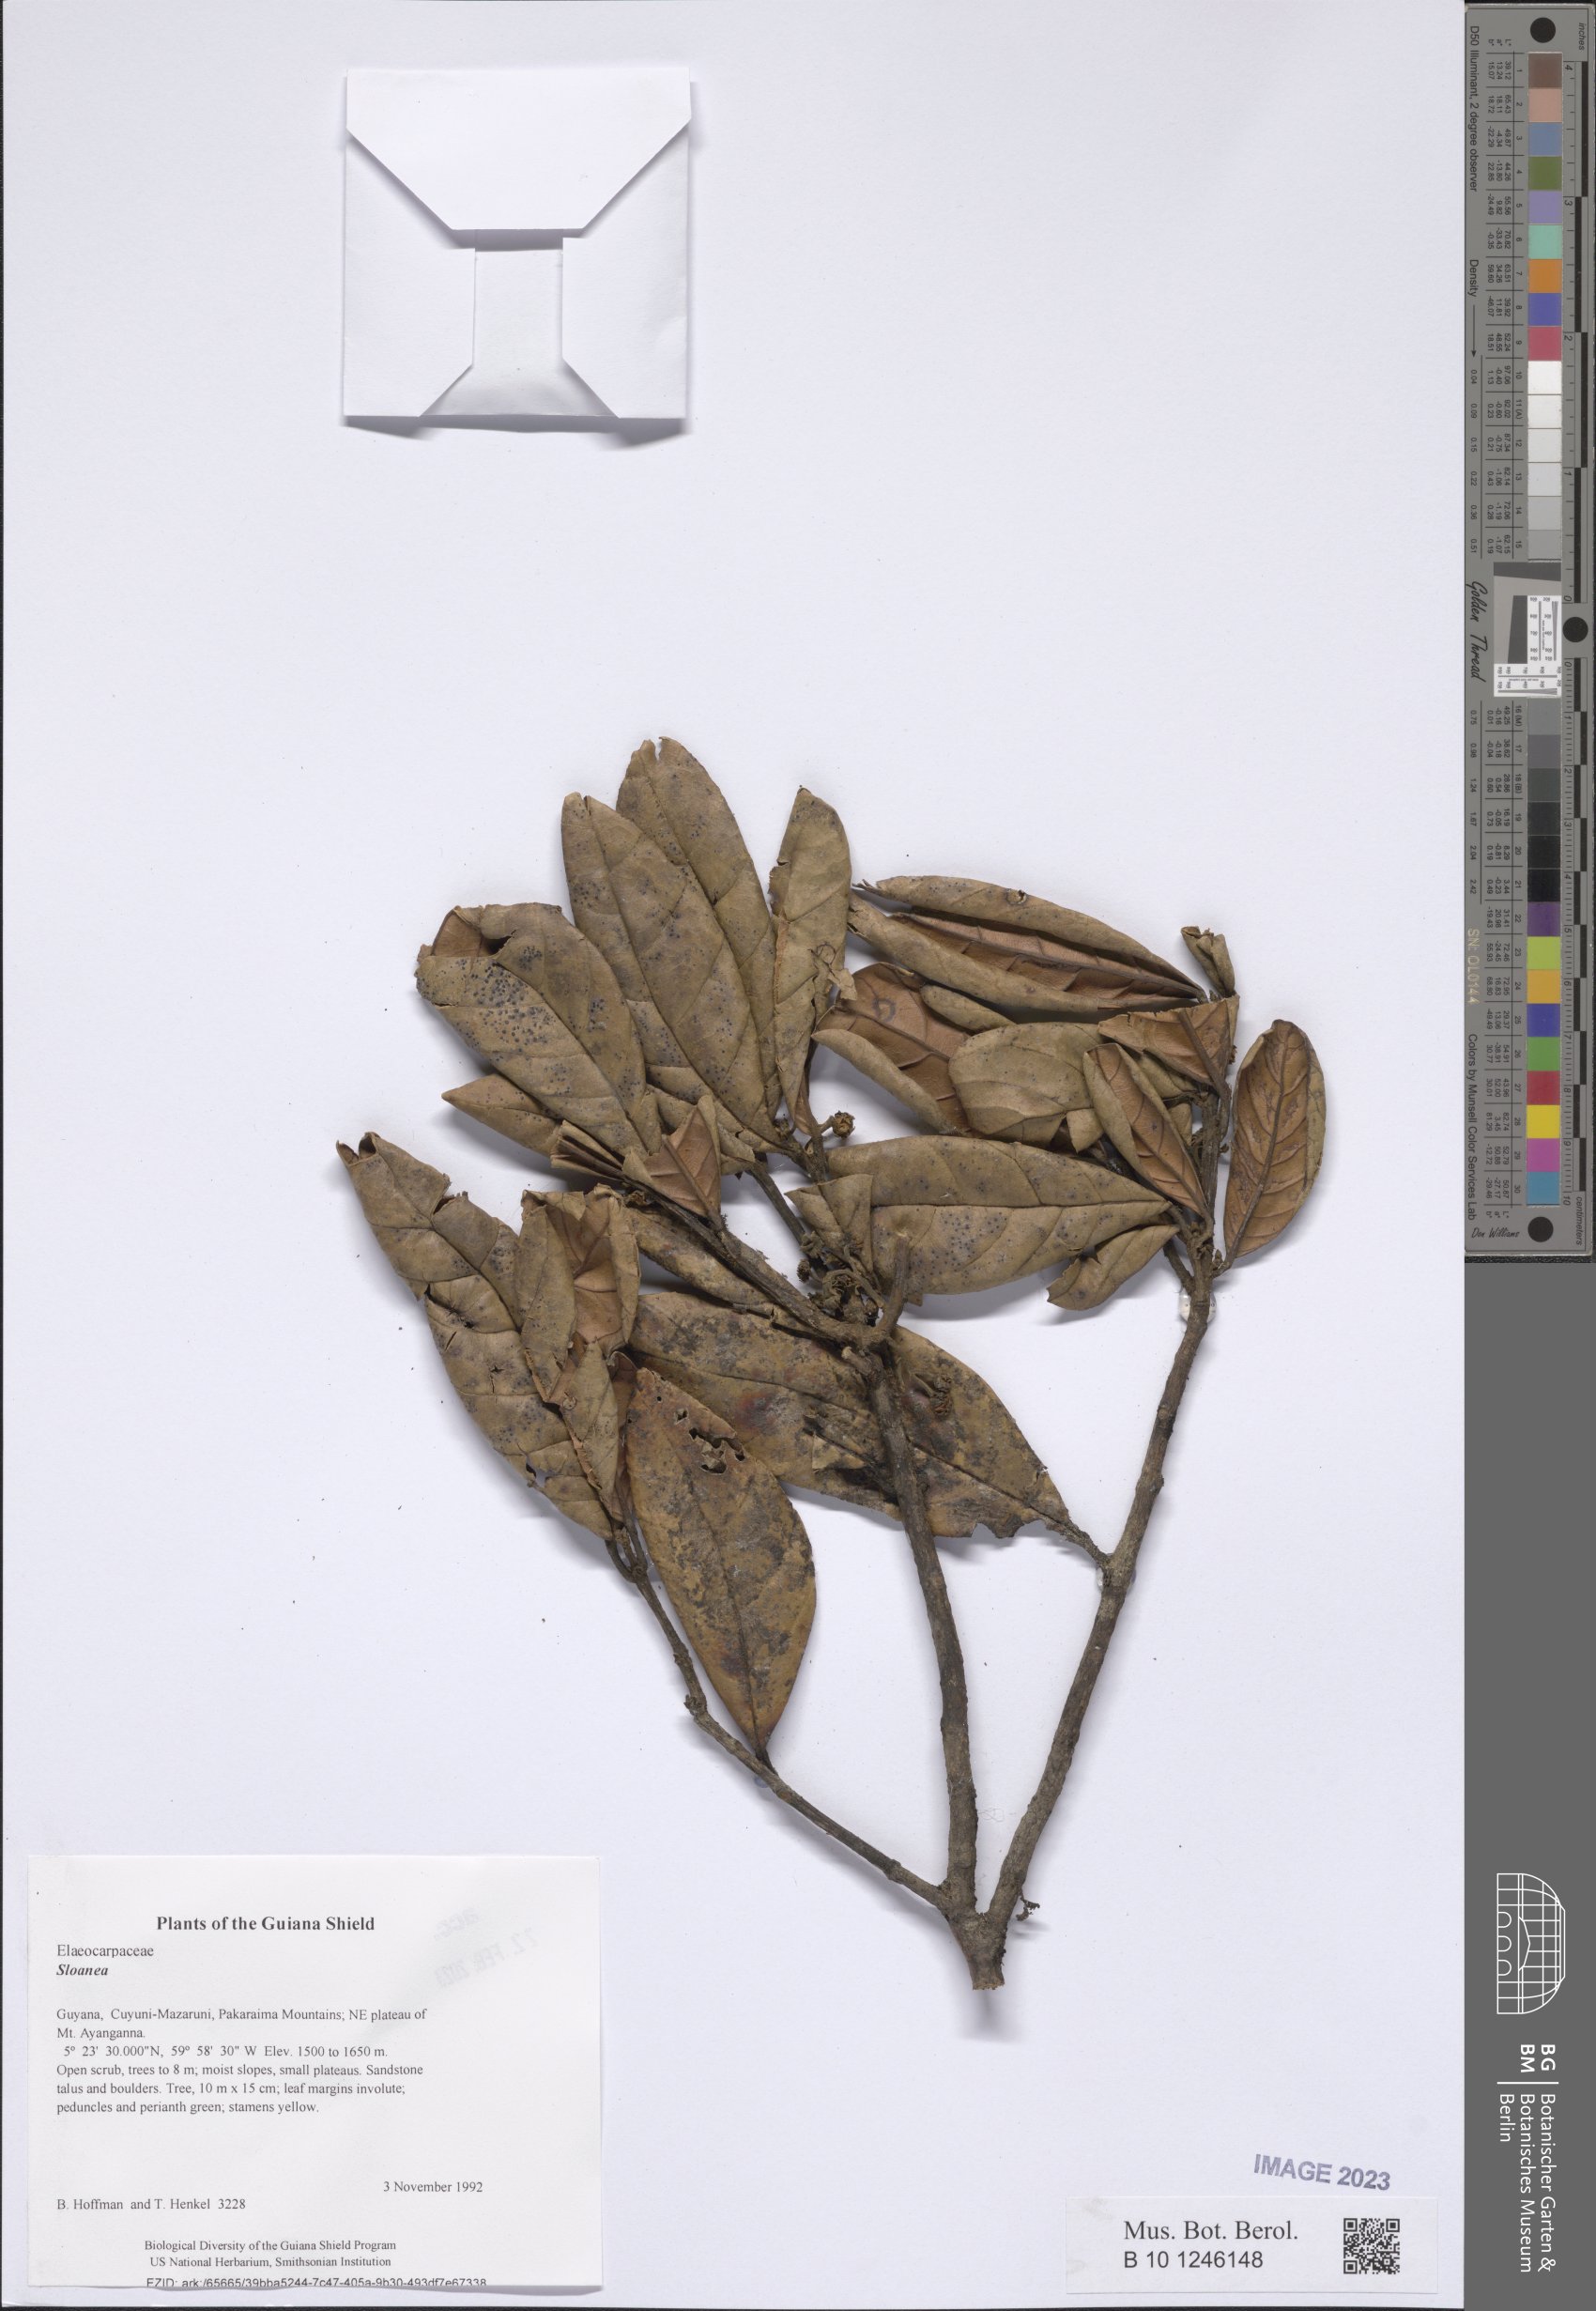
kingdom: Plantae
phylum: Tracheophyta
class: Magnoliopsida
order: Oxalidales
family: Elaeocarpaceae
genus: Sloanea
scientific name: Sloanea
